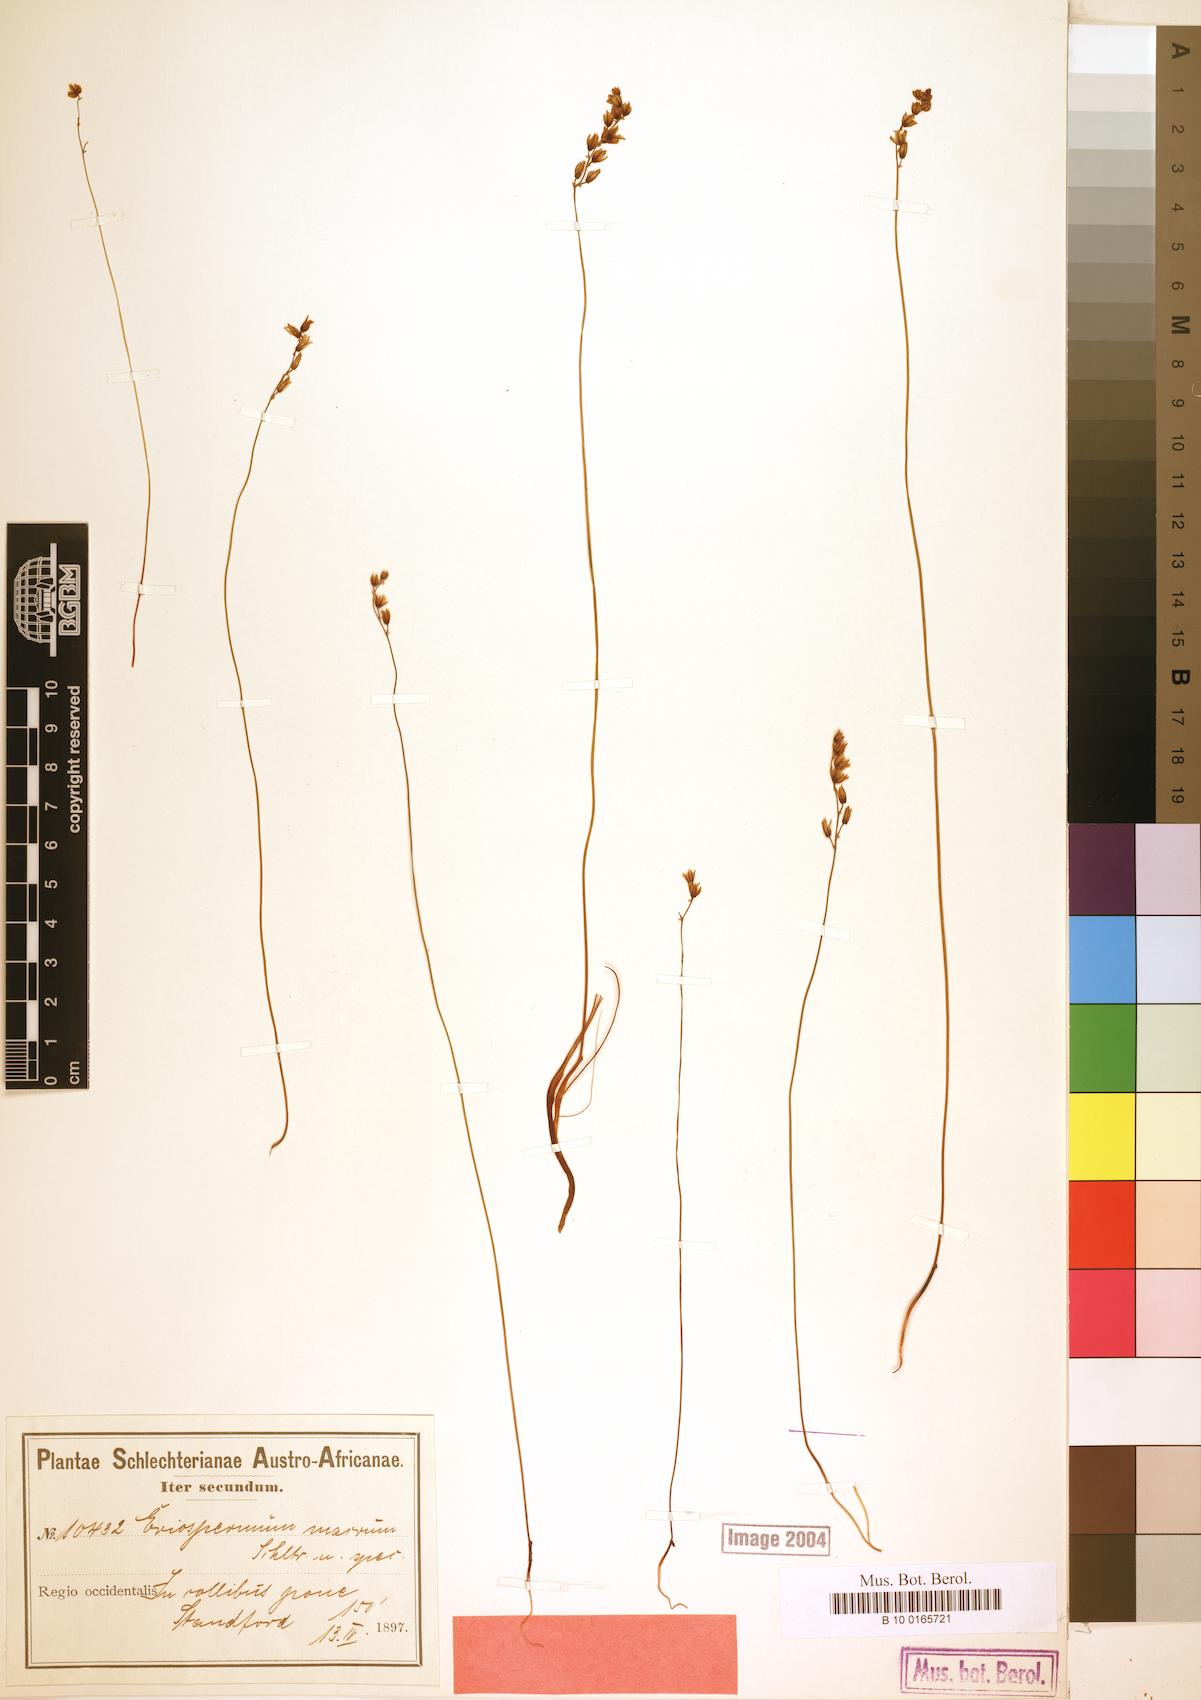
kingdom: Plantae
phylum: Tracheophyta
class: Liliopsida
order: Asparagales
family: Asparagaceae
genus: Eriospermum
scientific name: Eriospermum cernuum
